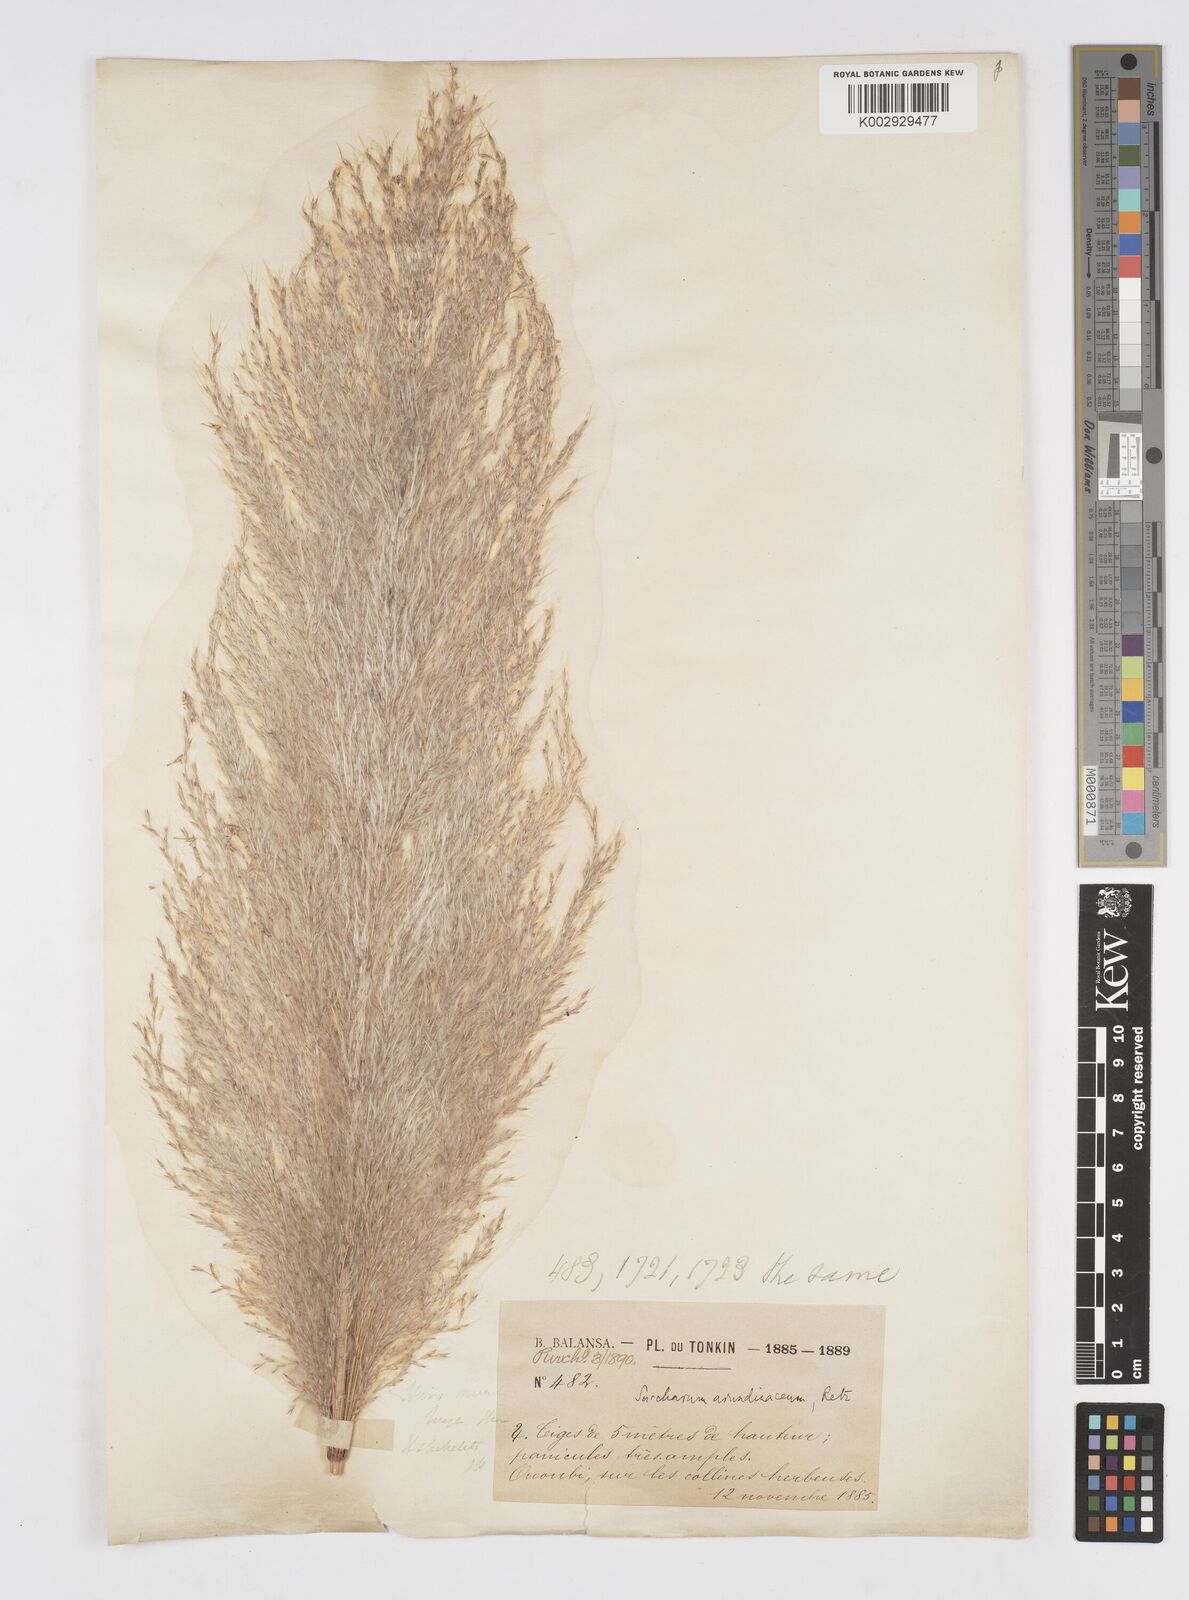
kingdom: Plantae
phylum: Tracheophyta
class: Liliopsida
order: Poales
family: Poaceae
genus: Tripidium
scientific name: Tripidium arundinaceum
